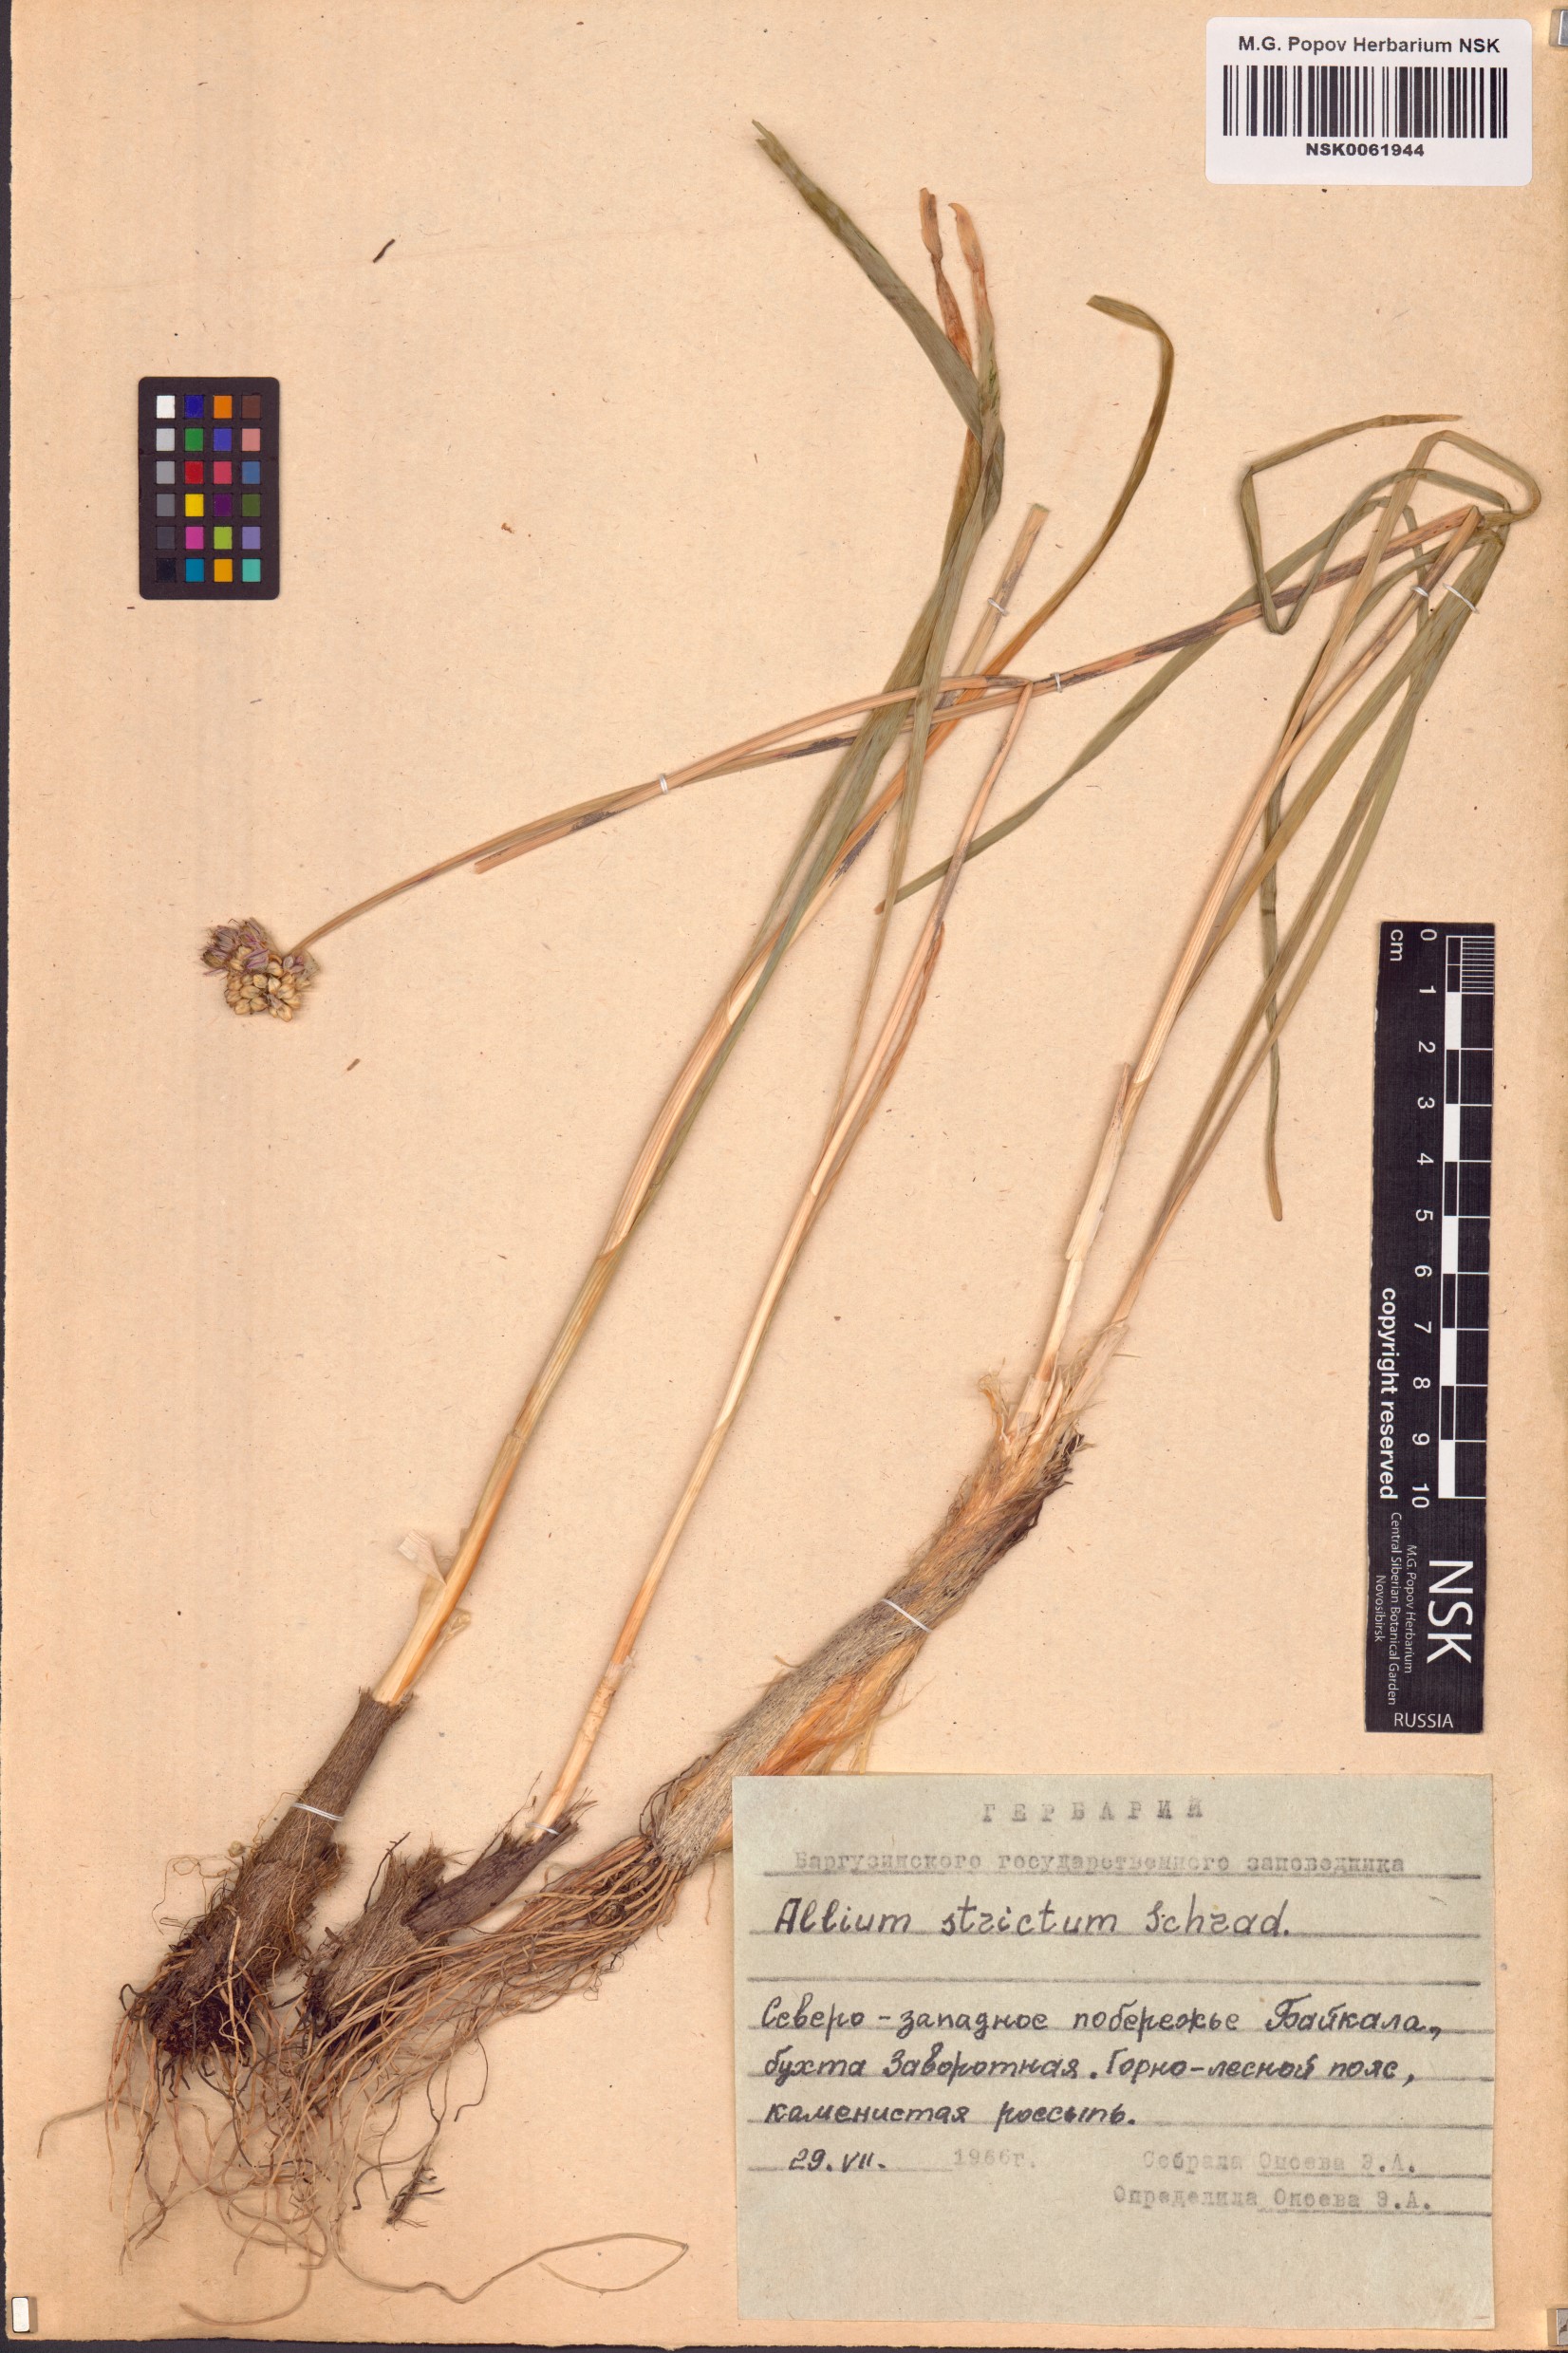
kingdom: Plantae
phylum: Tracheophyta
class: Liliopsida
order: Asparagales
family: Amaryllidaceae
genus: Allium
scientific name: Allium strictum
